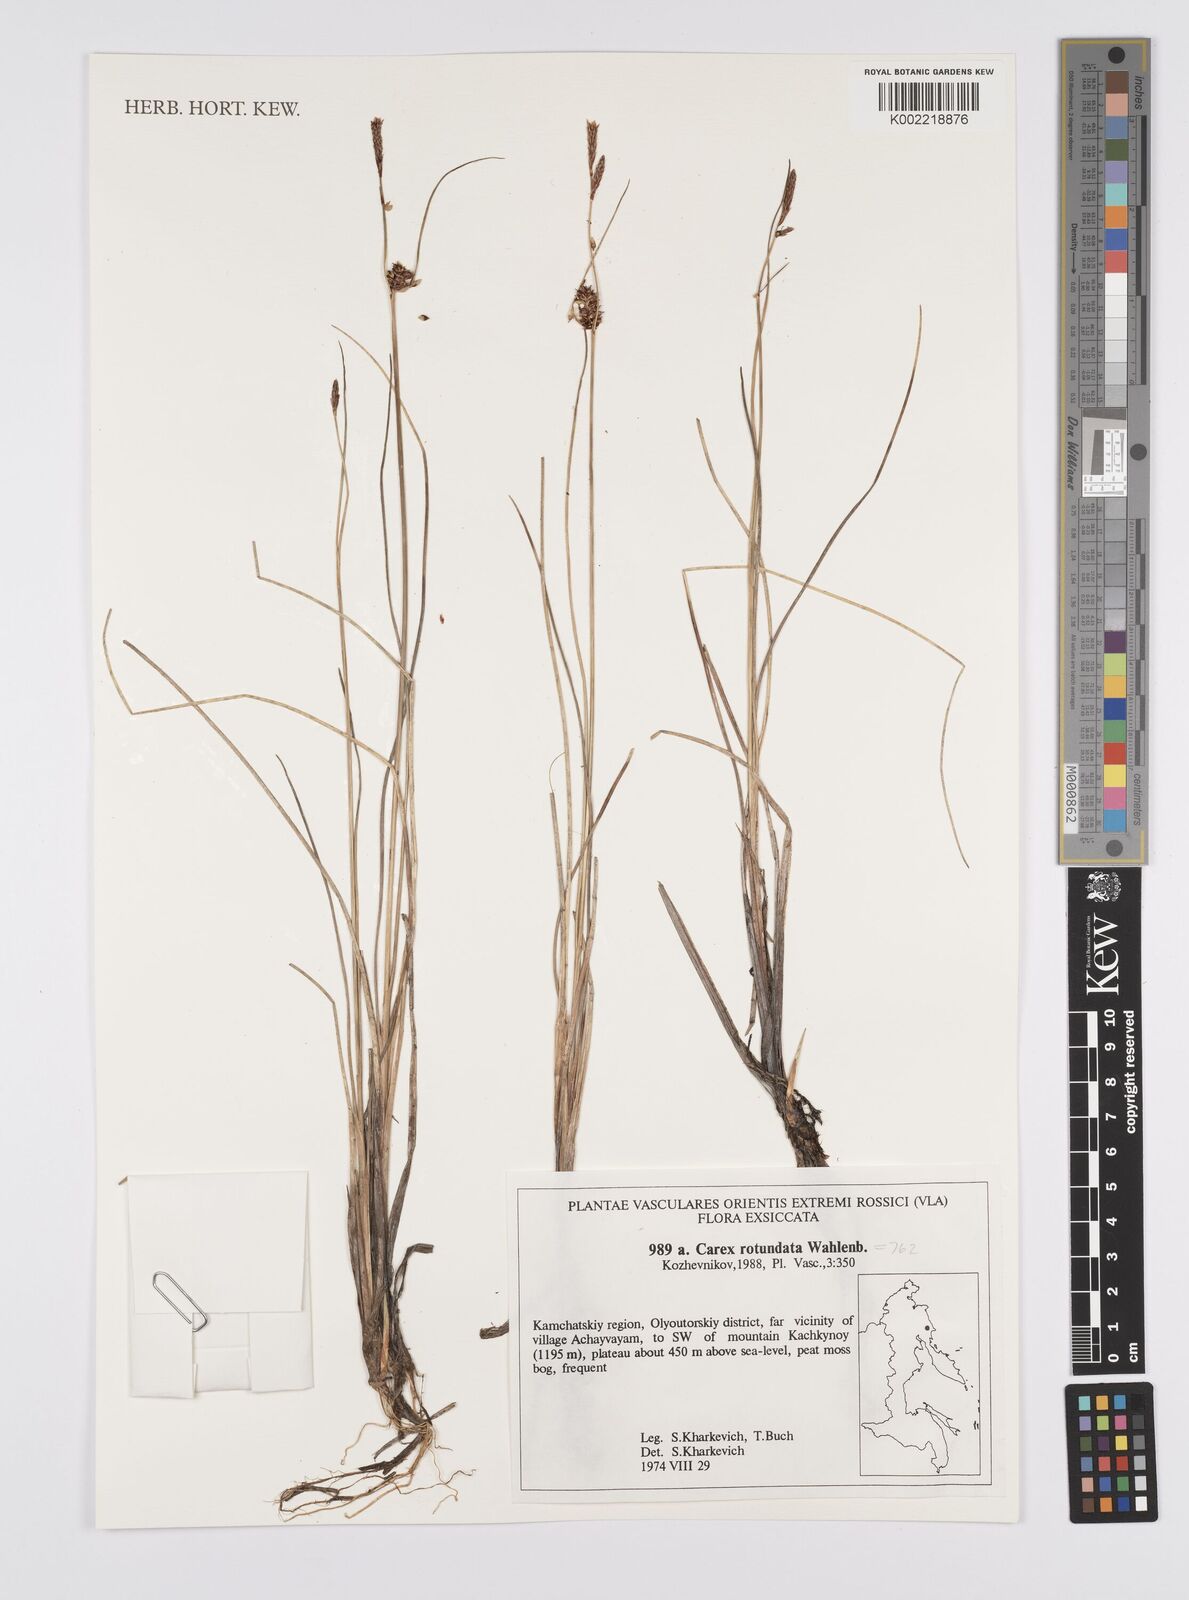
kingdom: Plantae
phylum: Tracheophyta
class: Liliopsida
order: Poales
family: Cyperaceae
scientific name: Cyperaceae
